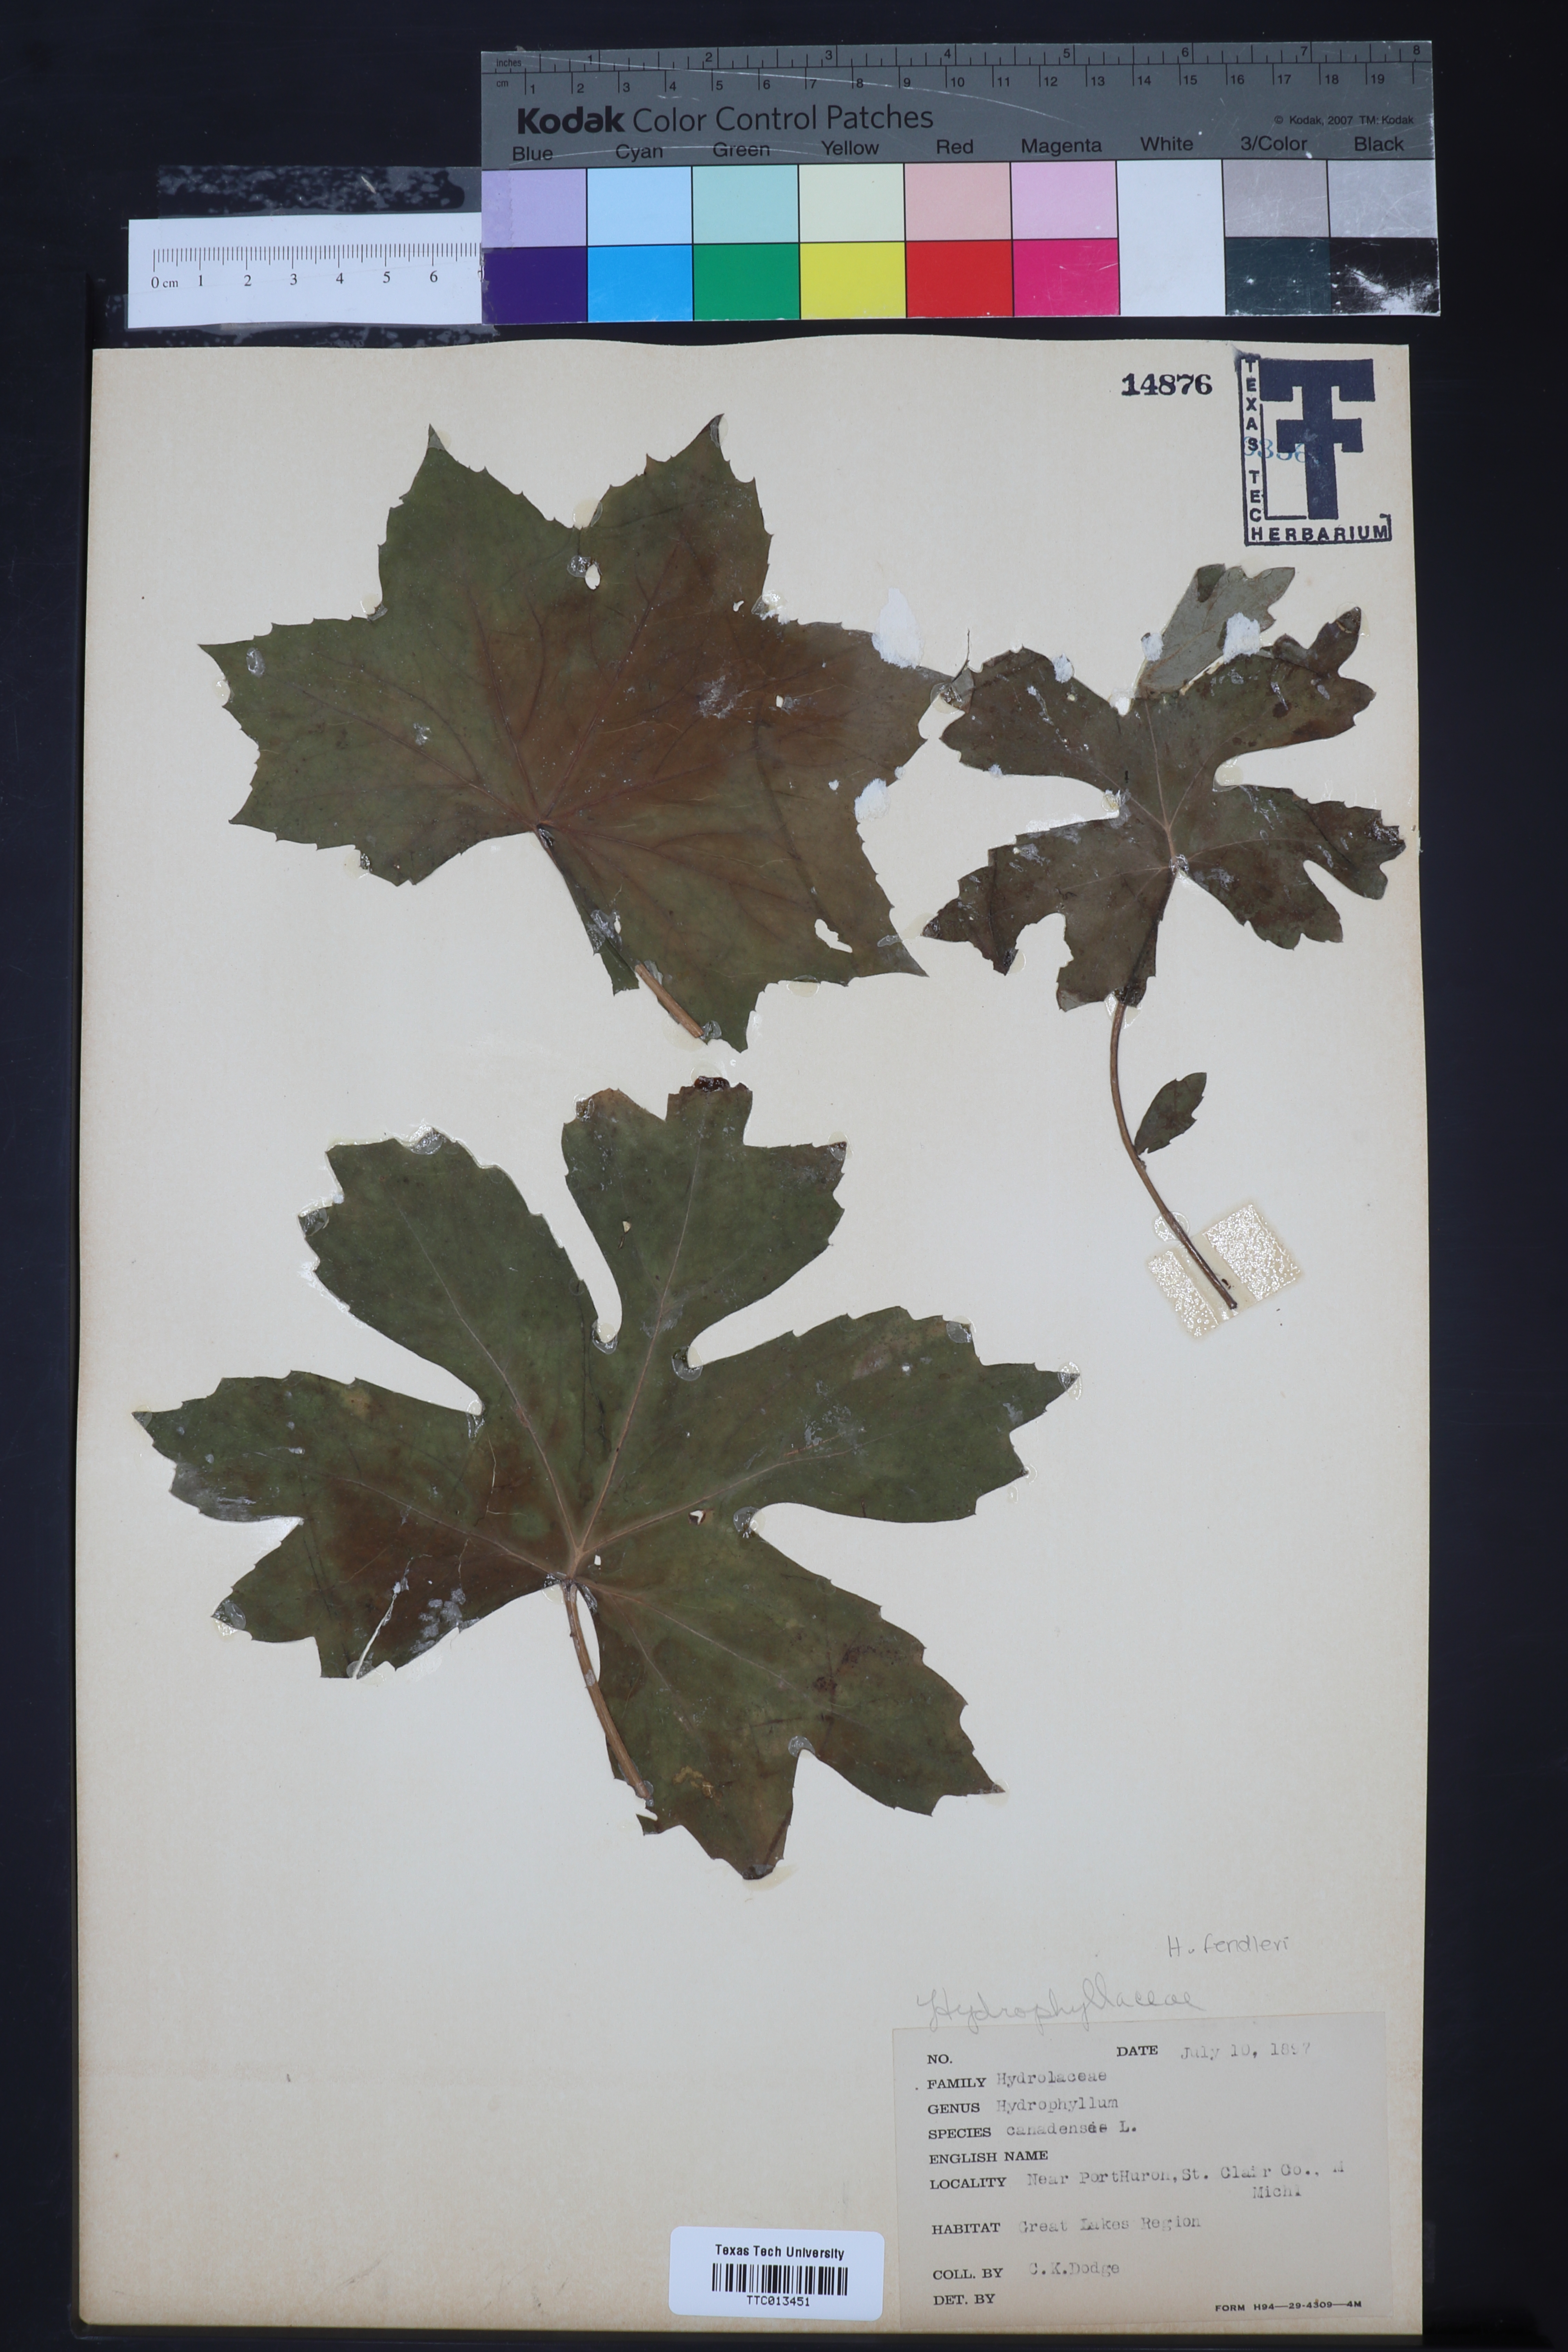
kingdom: Plantae
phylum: Tracheophyta
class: Magnoliopsida
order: Boraginales
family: Hydrophyllaceae
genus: Hydrophyllum
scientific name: Hydrophyllum canadense
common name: Canada waterleaf
